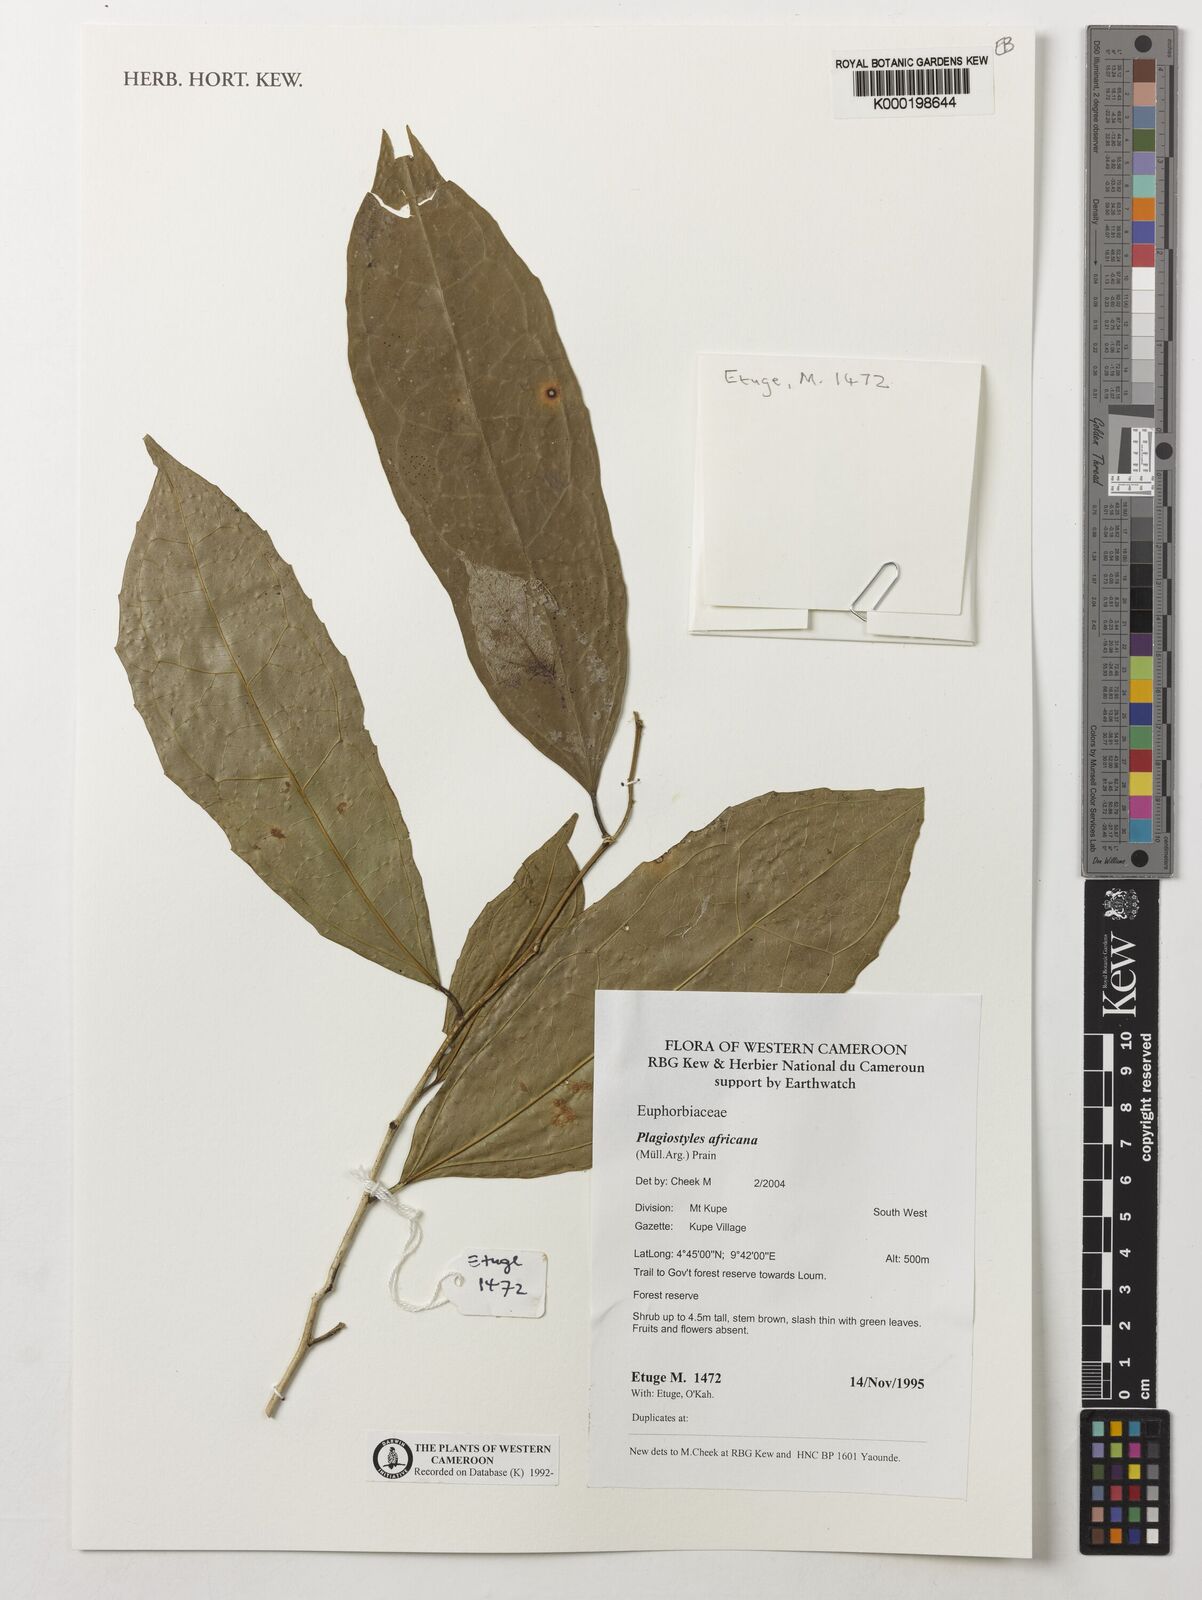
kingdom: Plantae
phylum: Tracheophyta
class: Magnoliopsida
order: Malpighiales
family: Euphorbiaceae
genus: Plagiostyles
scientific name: Plagiostyles africana
